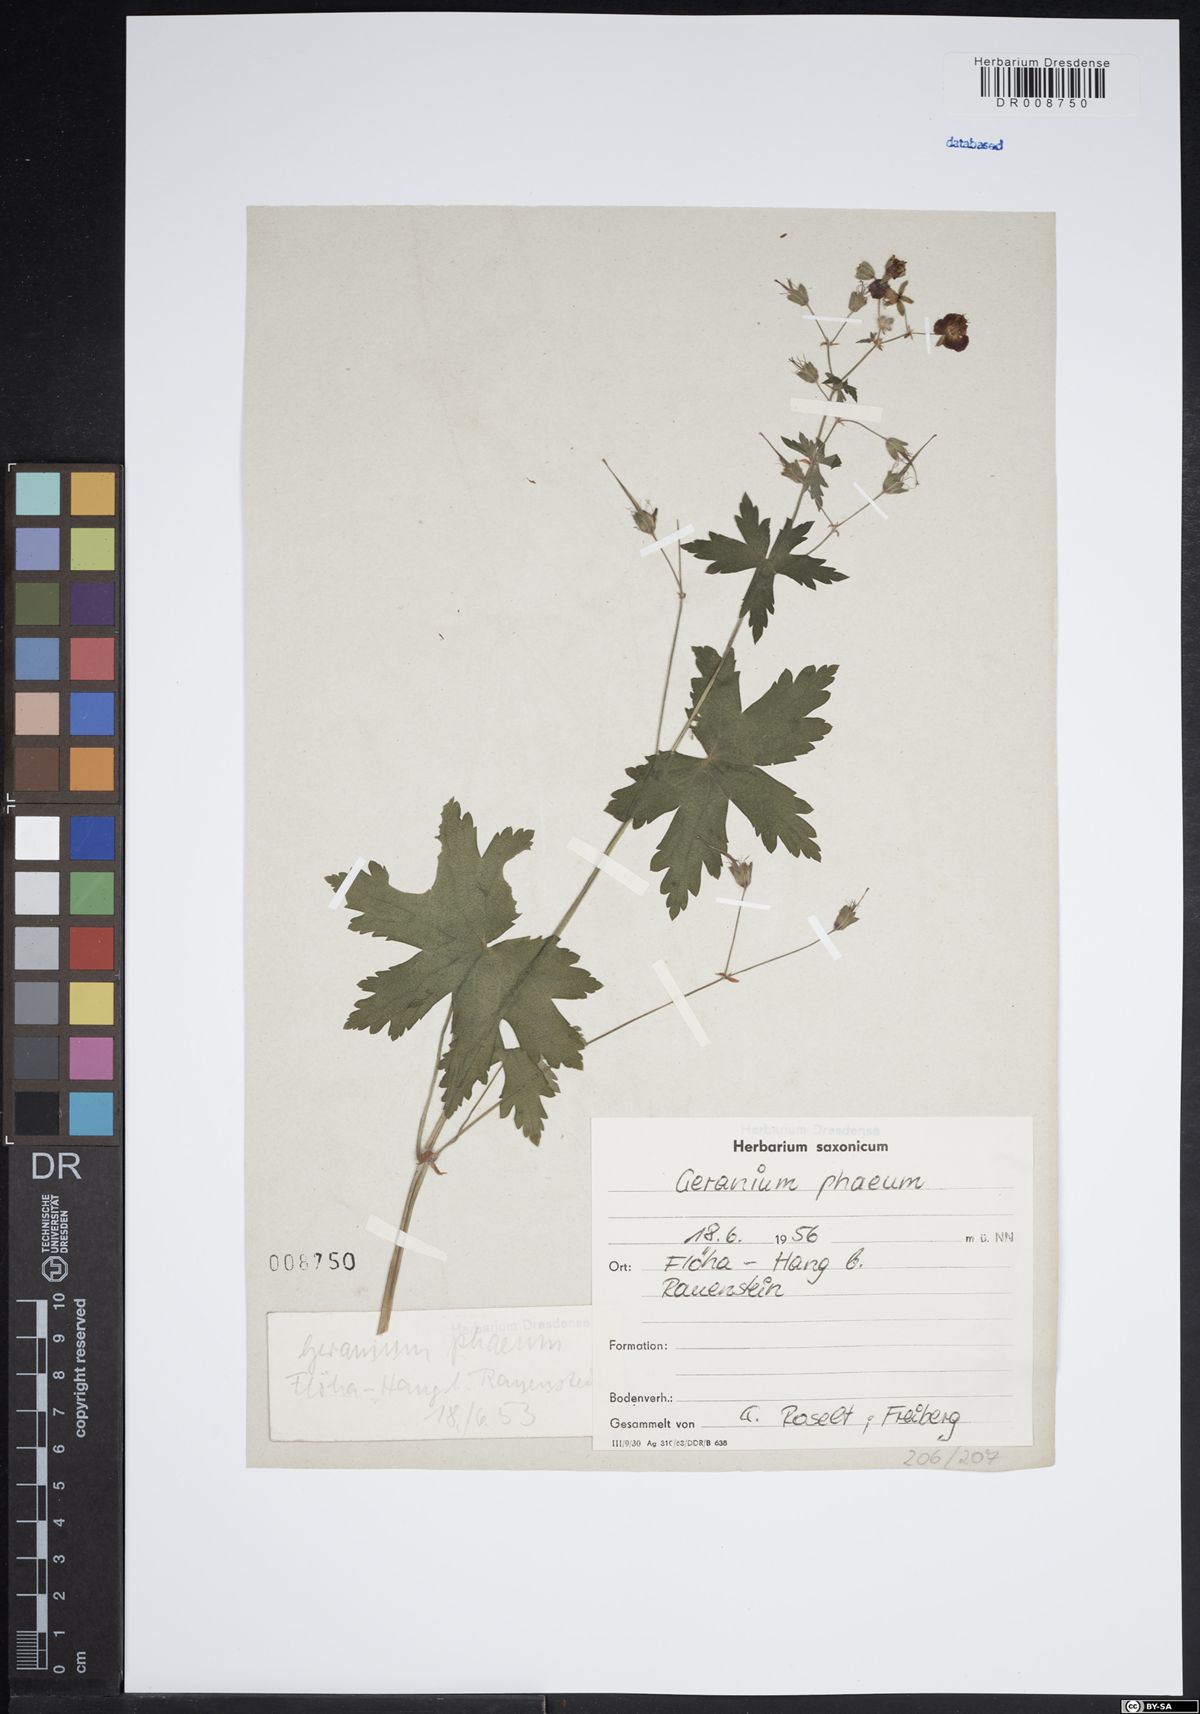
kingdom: Plantae
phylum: Tracheophyta
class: Magnoliopsida
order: Geraniales
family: Geraniaceae
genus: Geranium
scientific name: Geranium phaeum
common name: Dusky crane's-bill
